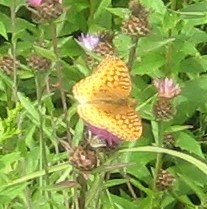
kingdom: Animalia
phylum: Arthropoda
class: Insecta
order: Lepidoptera
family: Nymphalidae
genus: Speyeria
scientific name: Speyeria cybele
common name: Great Spangled Fritillary
